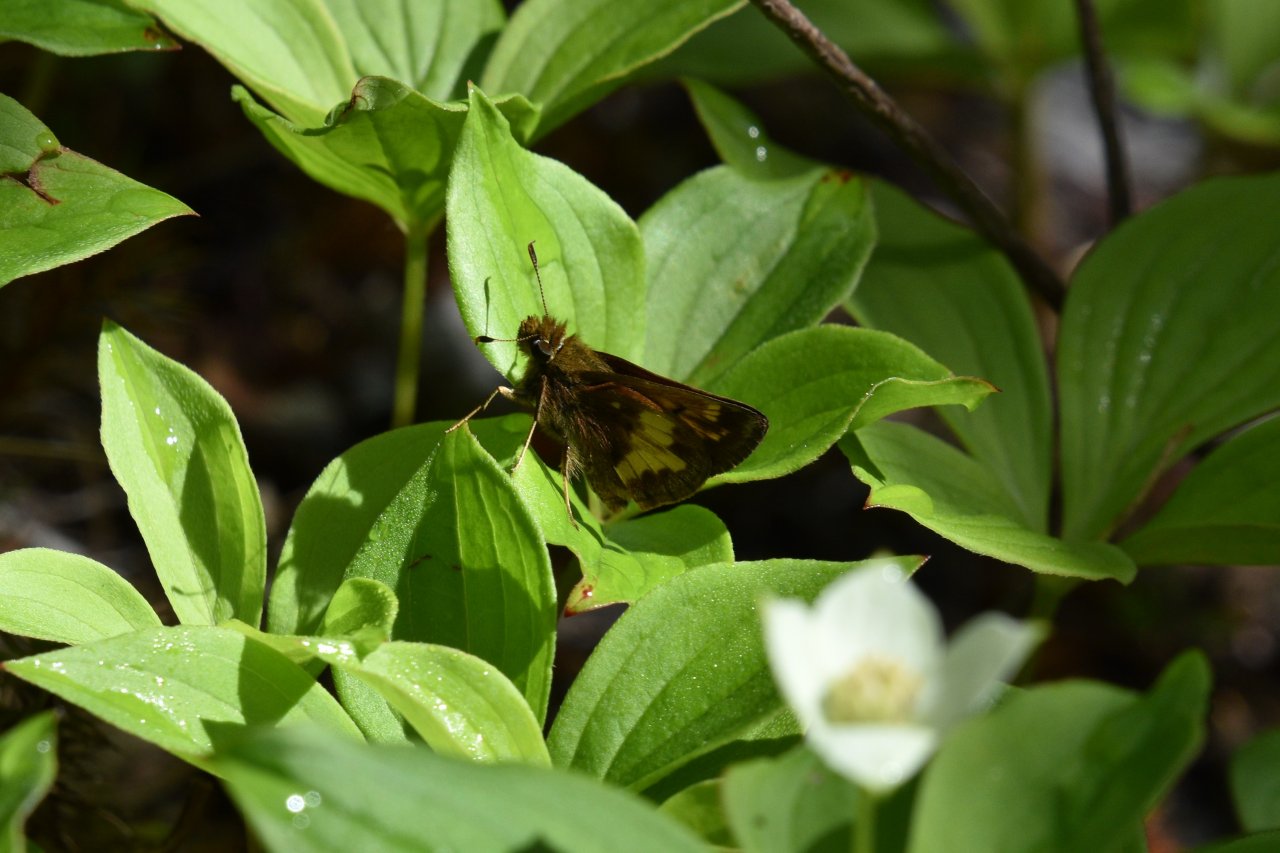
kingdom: Animalia
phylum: Arthropoda
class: Insecta
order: Lepidoptera
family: Hesperiidae
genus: Lon
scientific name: Lon hobomok
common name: Hobomok Skipper
